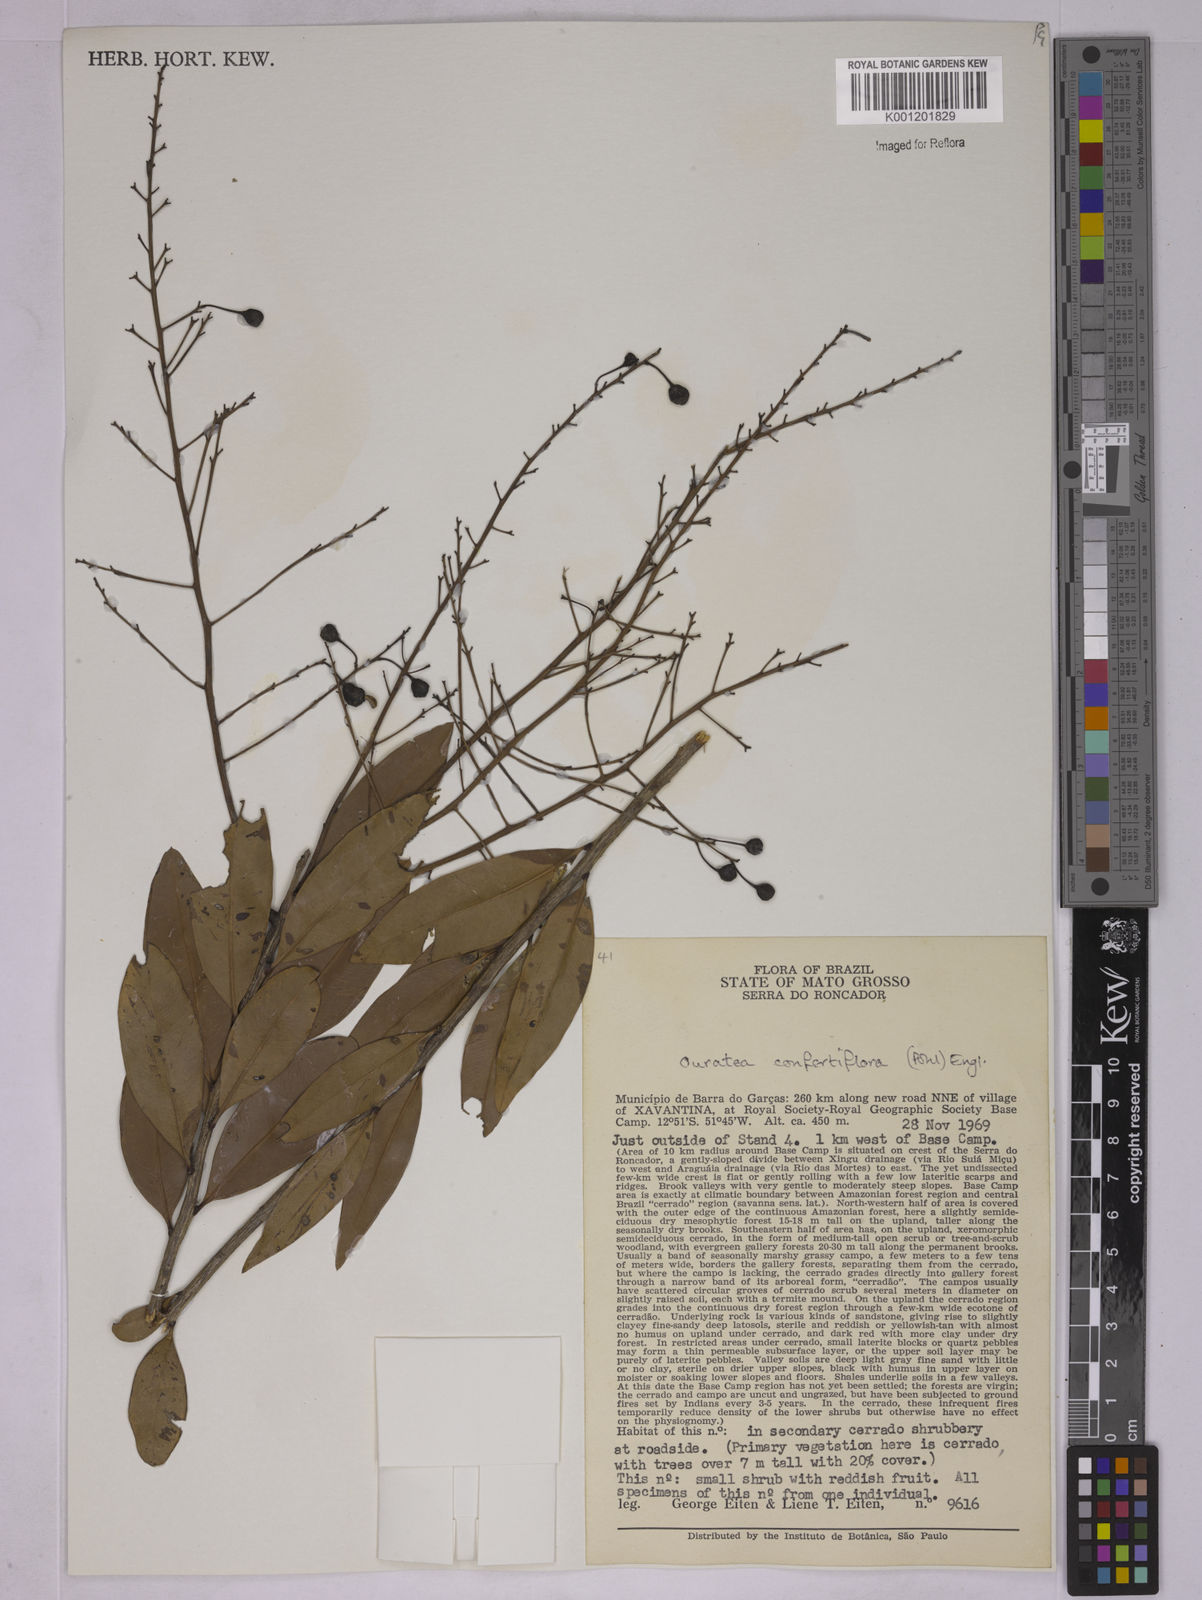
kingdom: Plantae
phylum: Tracheophyta
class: Magnoliopsida
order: Malpighiales
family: Ochnaceae
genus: Ouratea
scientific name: Ouratea confertiflora
